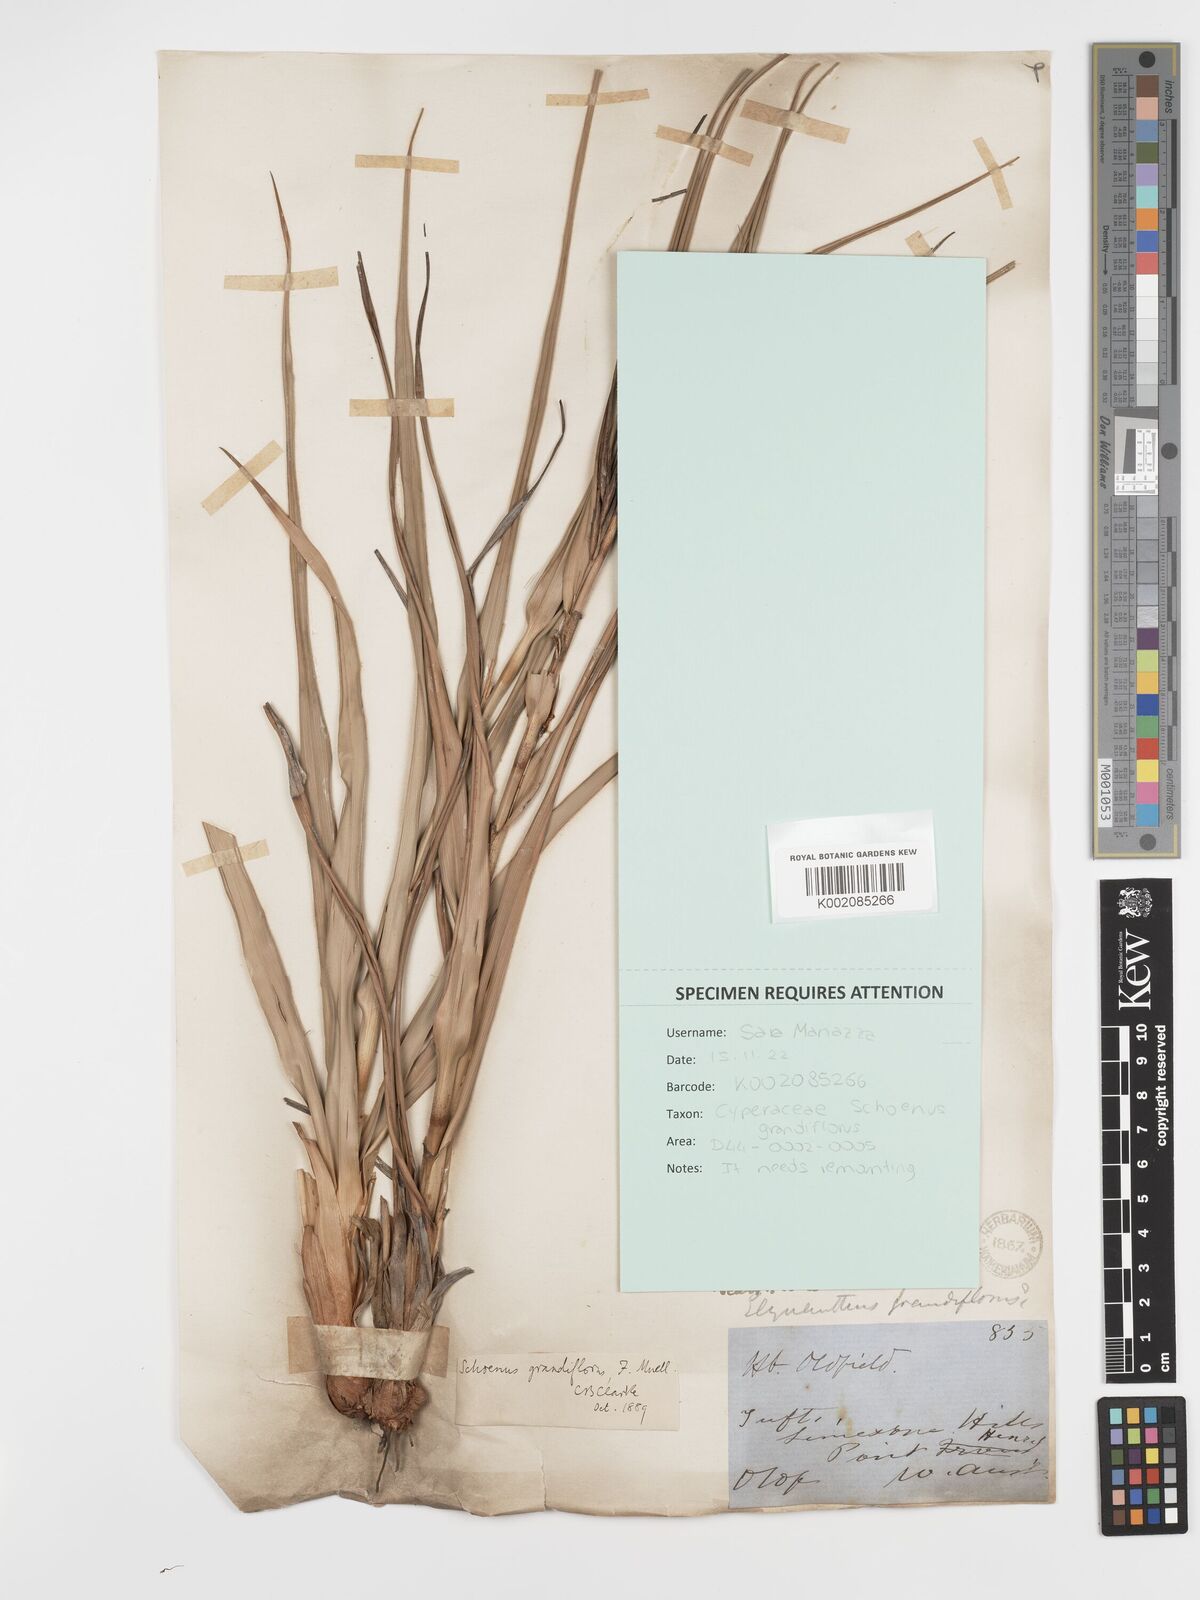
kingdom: Plantae
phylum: Tracheophyta
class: Liliopsida
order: Poales
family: Cyperaceae
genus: Schoenus
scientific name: Schoenus grandiflorus
